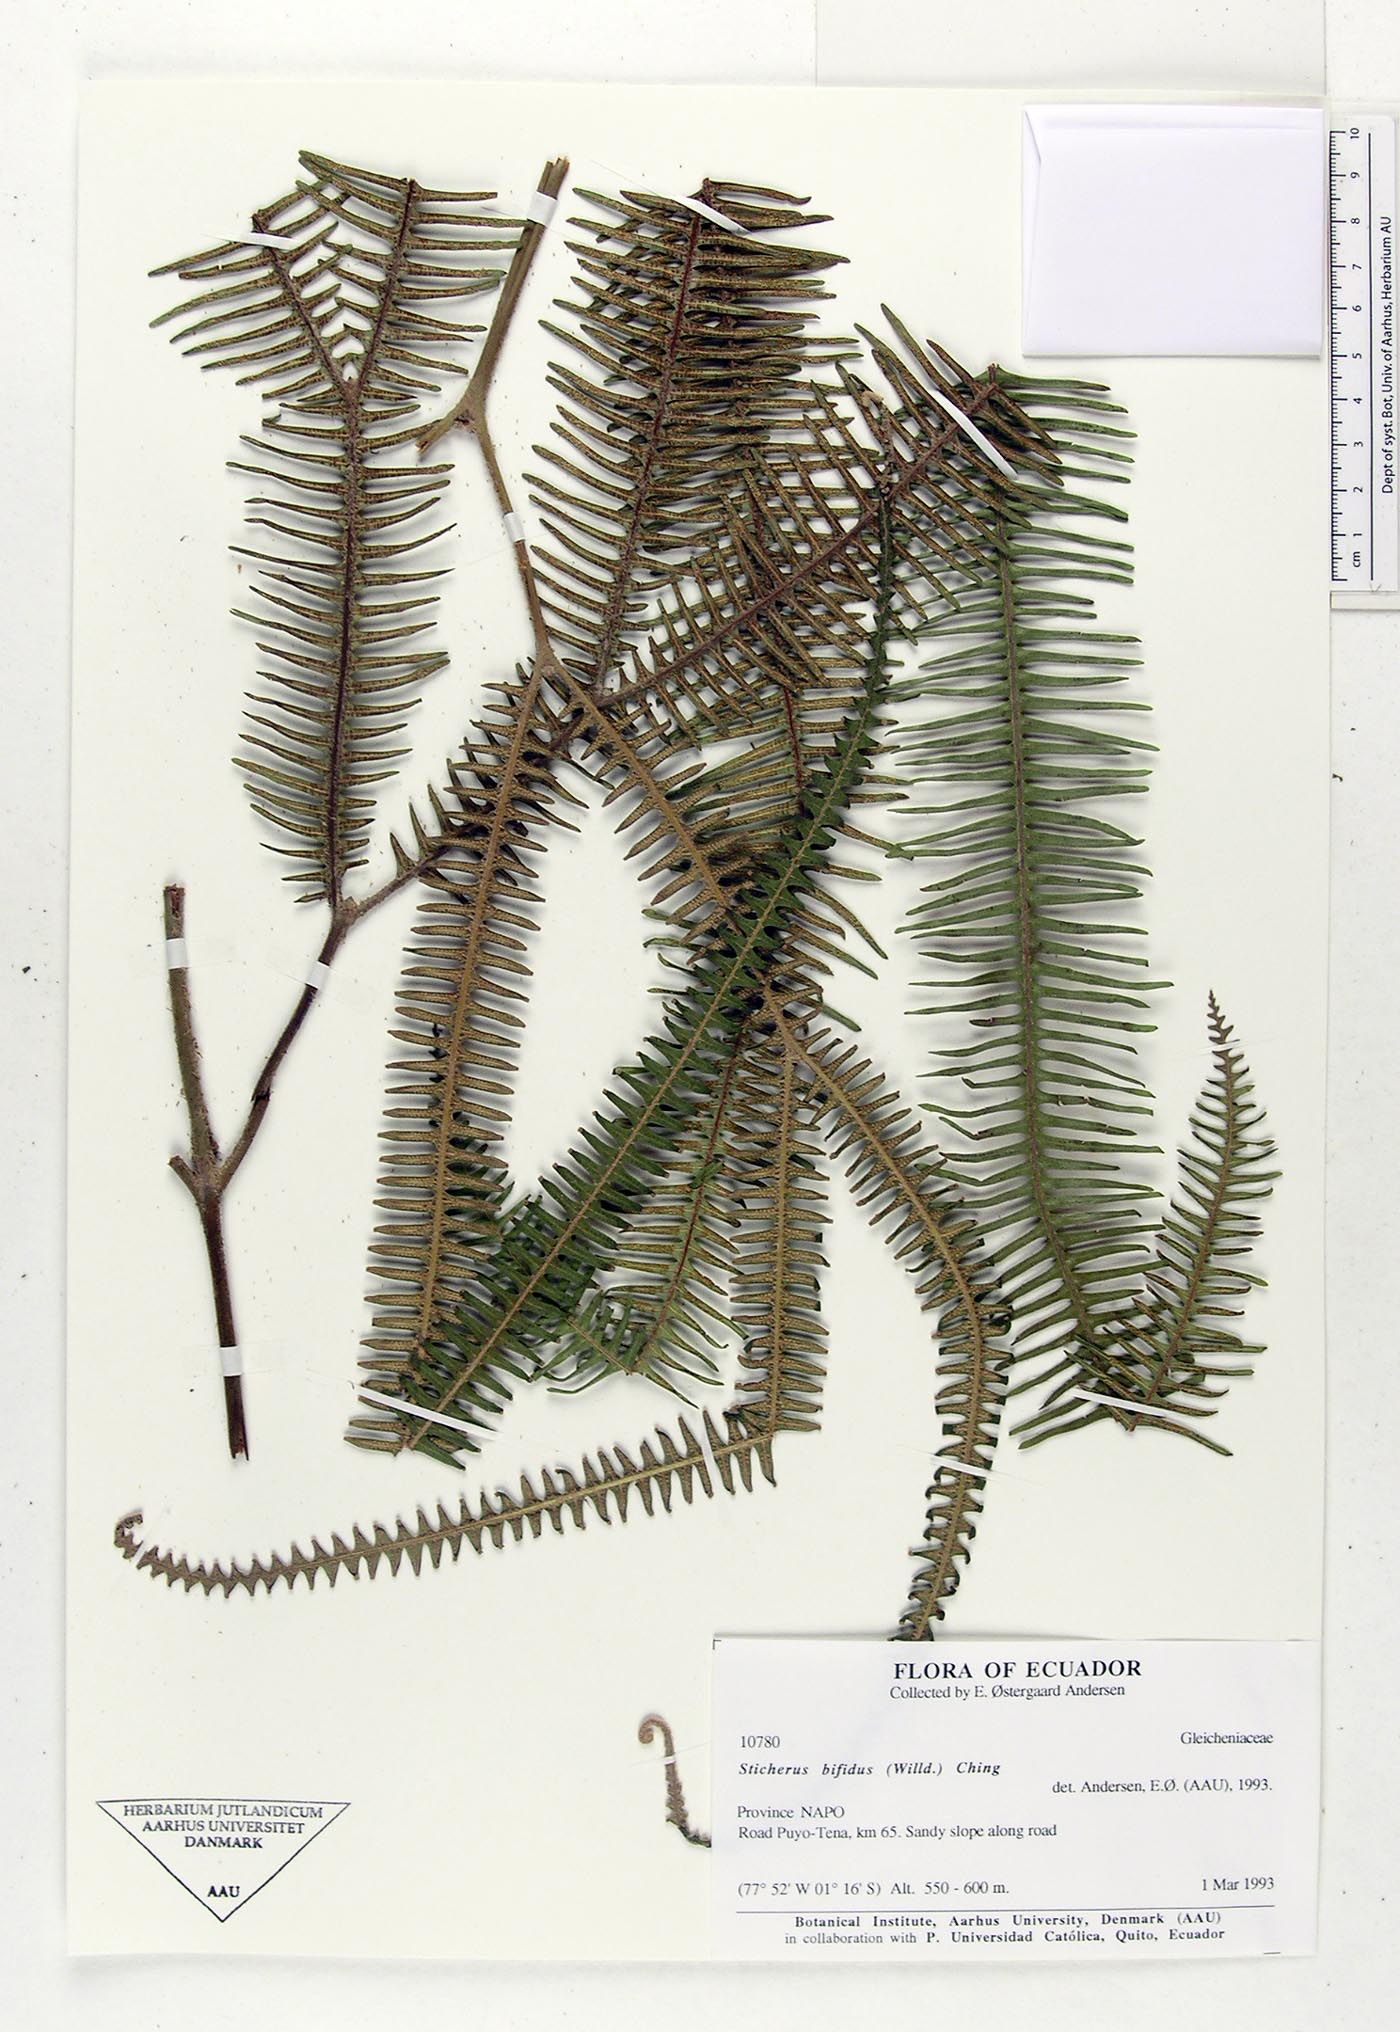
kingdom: Plantae
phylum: Tracheophyta
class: Polypodiopsida
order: Gleicheniales
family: Gleicheniaceae
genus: Sticherus
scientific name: Sticherus bifidus
